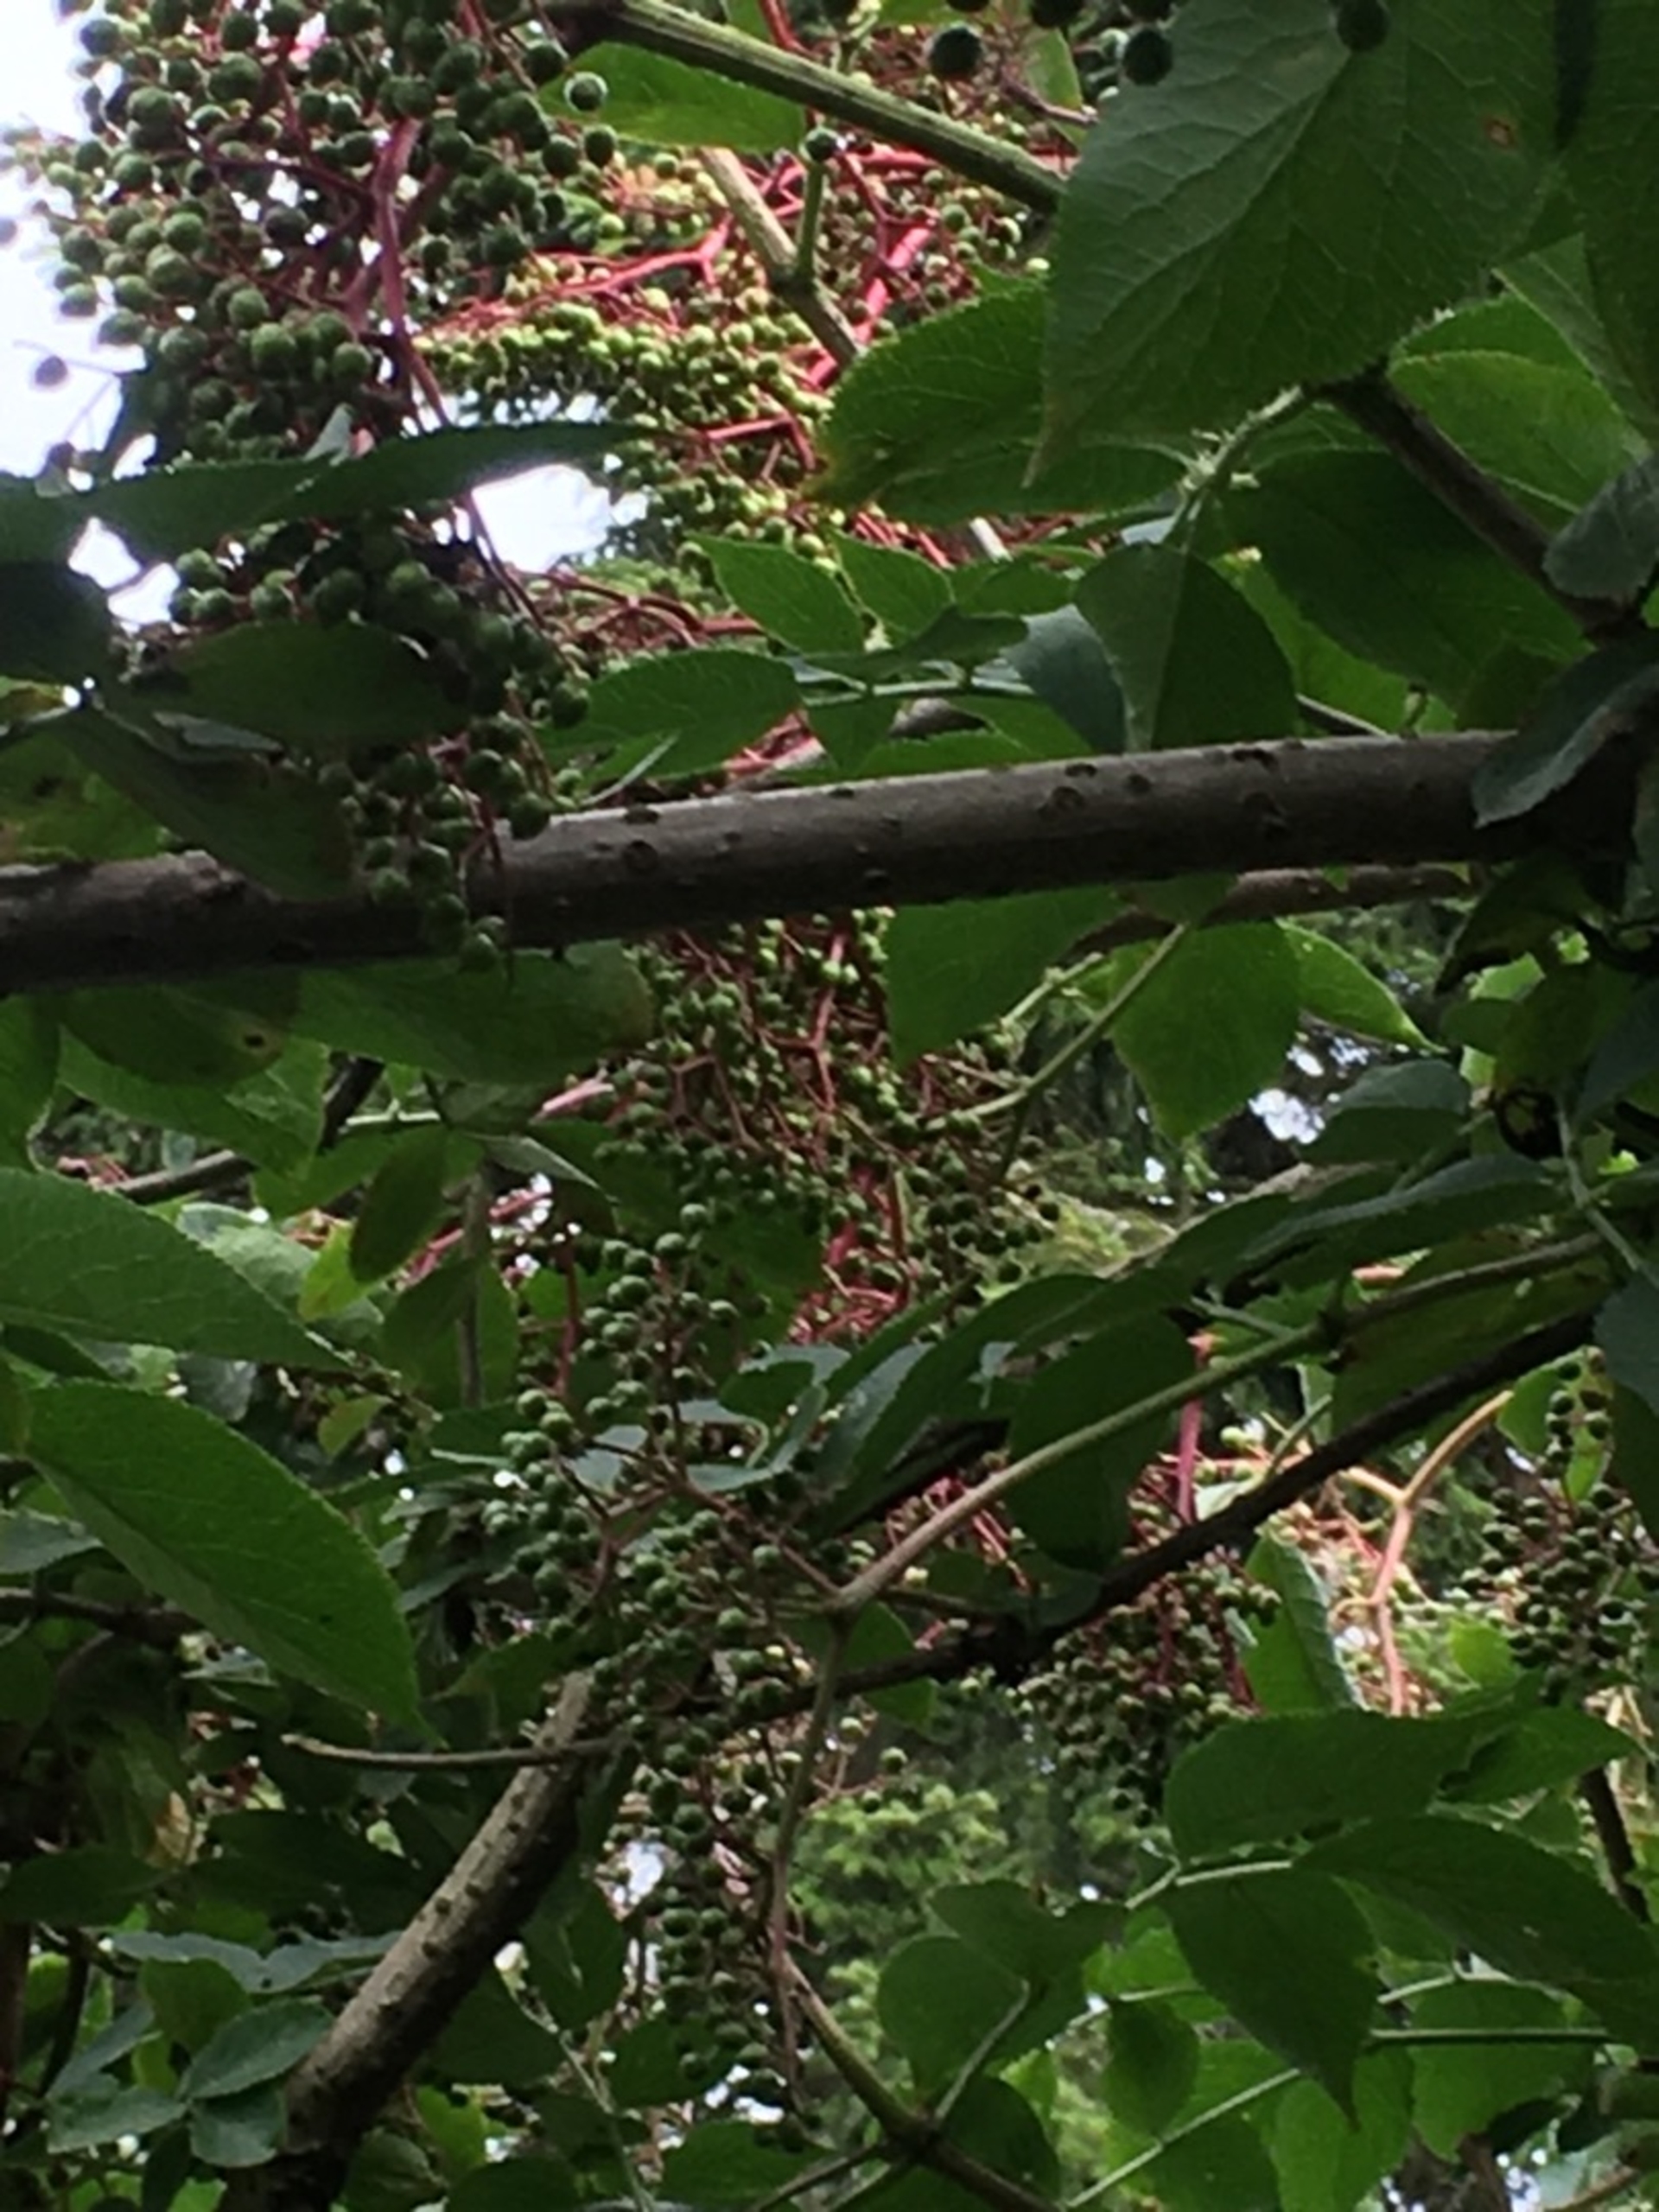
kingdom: Plantae
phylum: Tracheophyta
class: Magnoliopsida
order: Dipsacales
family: Viburnaceae
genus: Sambucus
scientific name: Sambucus nigra
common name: Almindelig hyld
